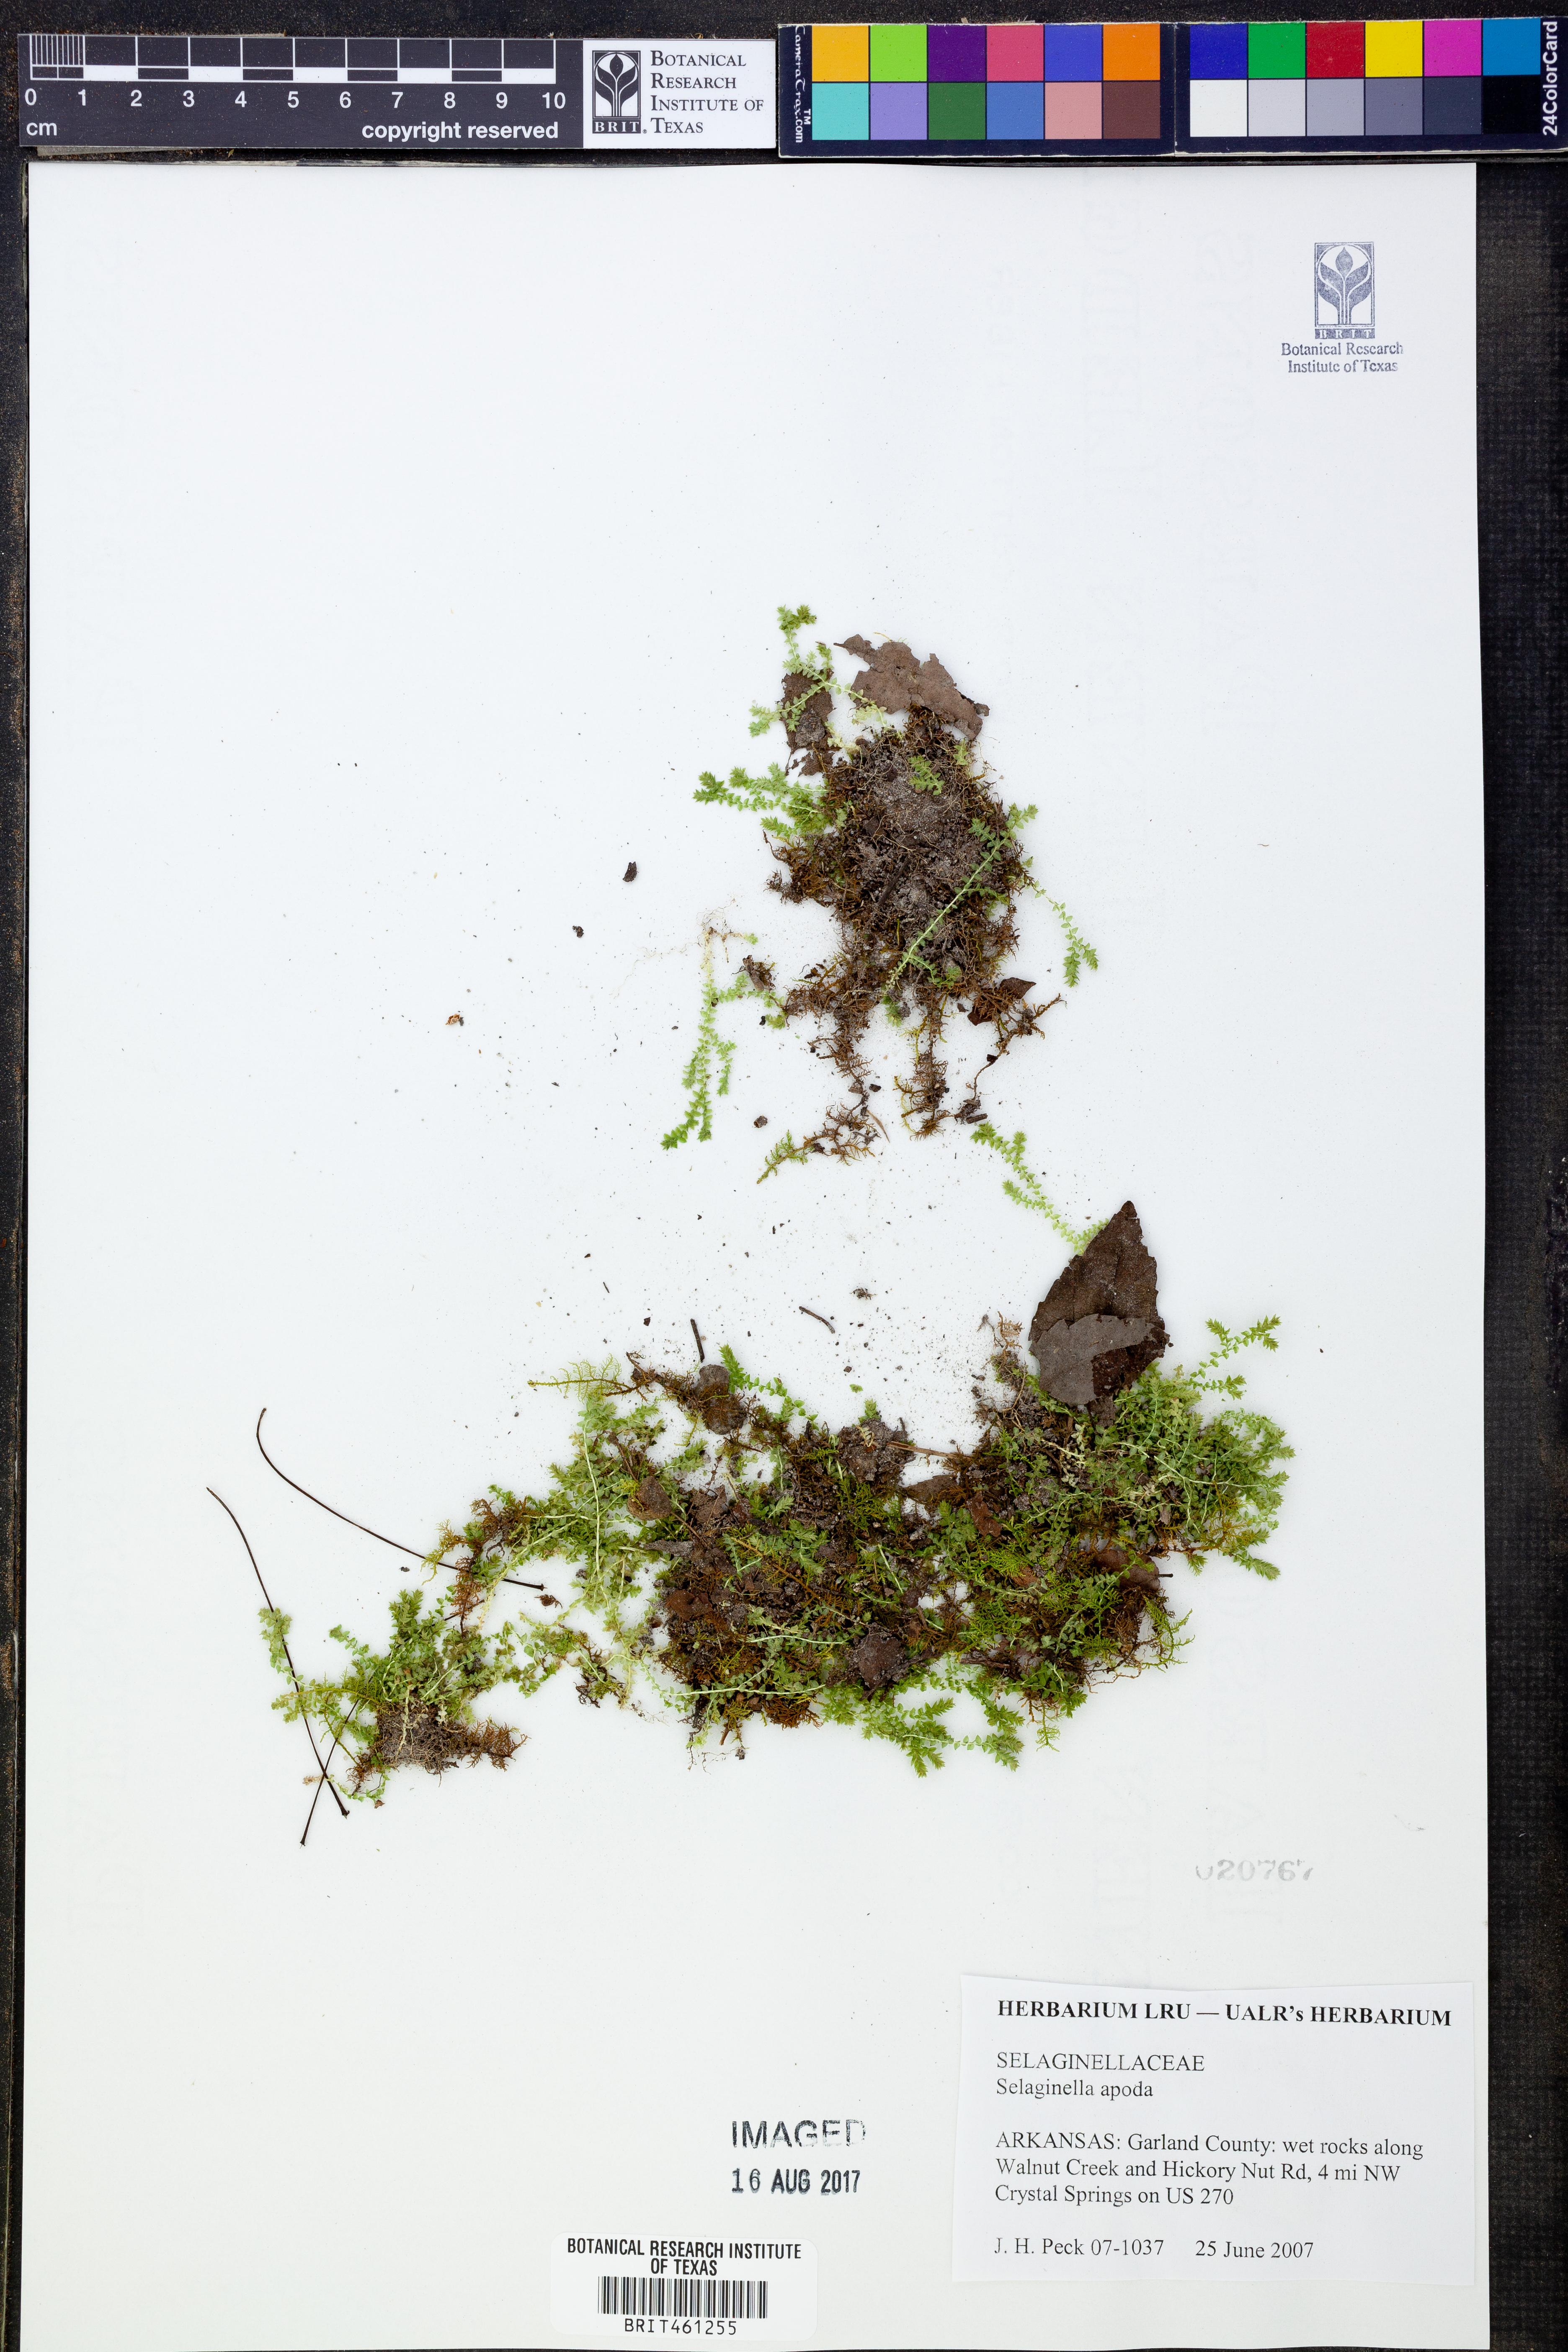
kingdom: Plantae
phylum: Tracheophyta
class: Lycopodiopsida
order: Selaginellales
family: Selaginellaceae
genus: Selaginella
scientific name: Selaginella apoda
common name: Creeping spikemoss
